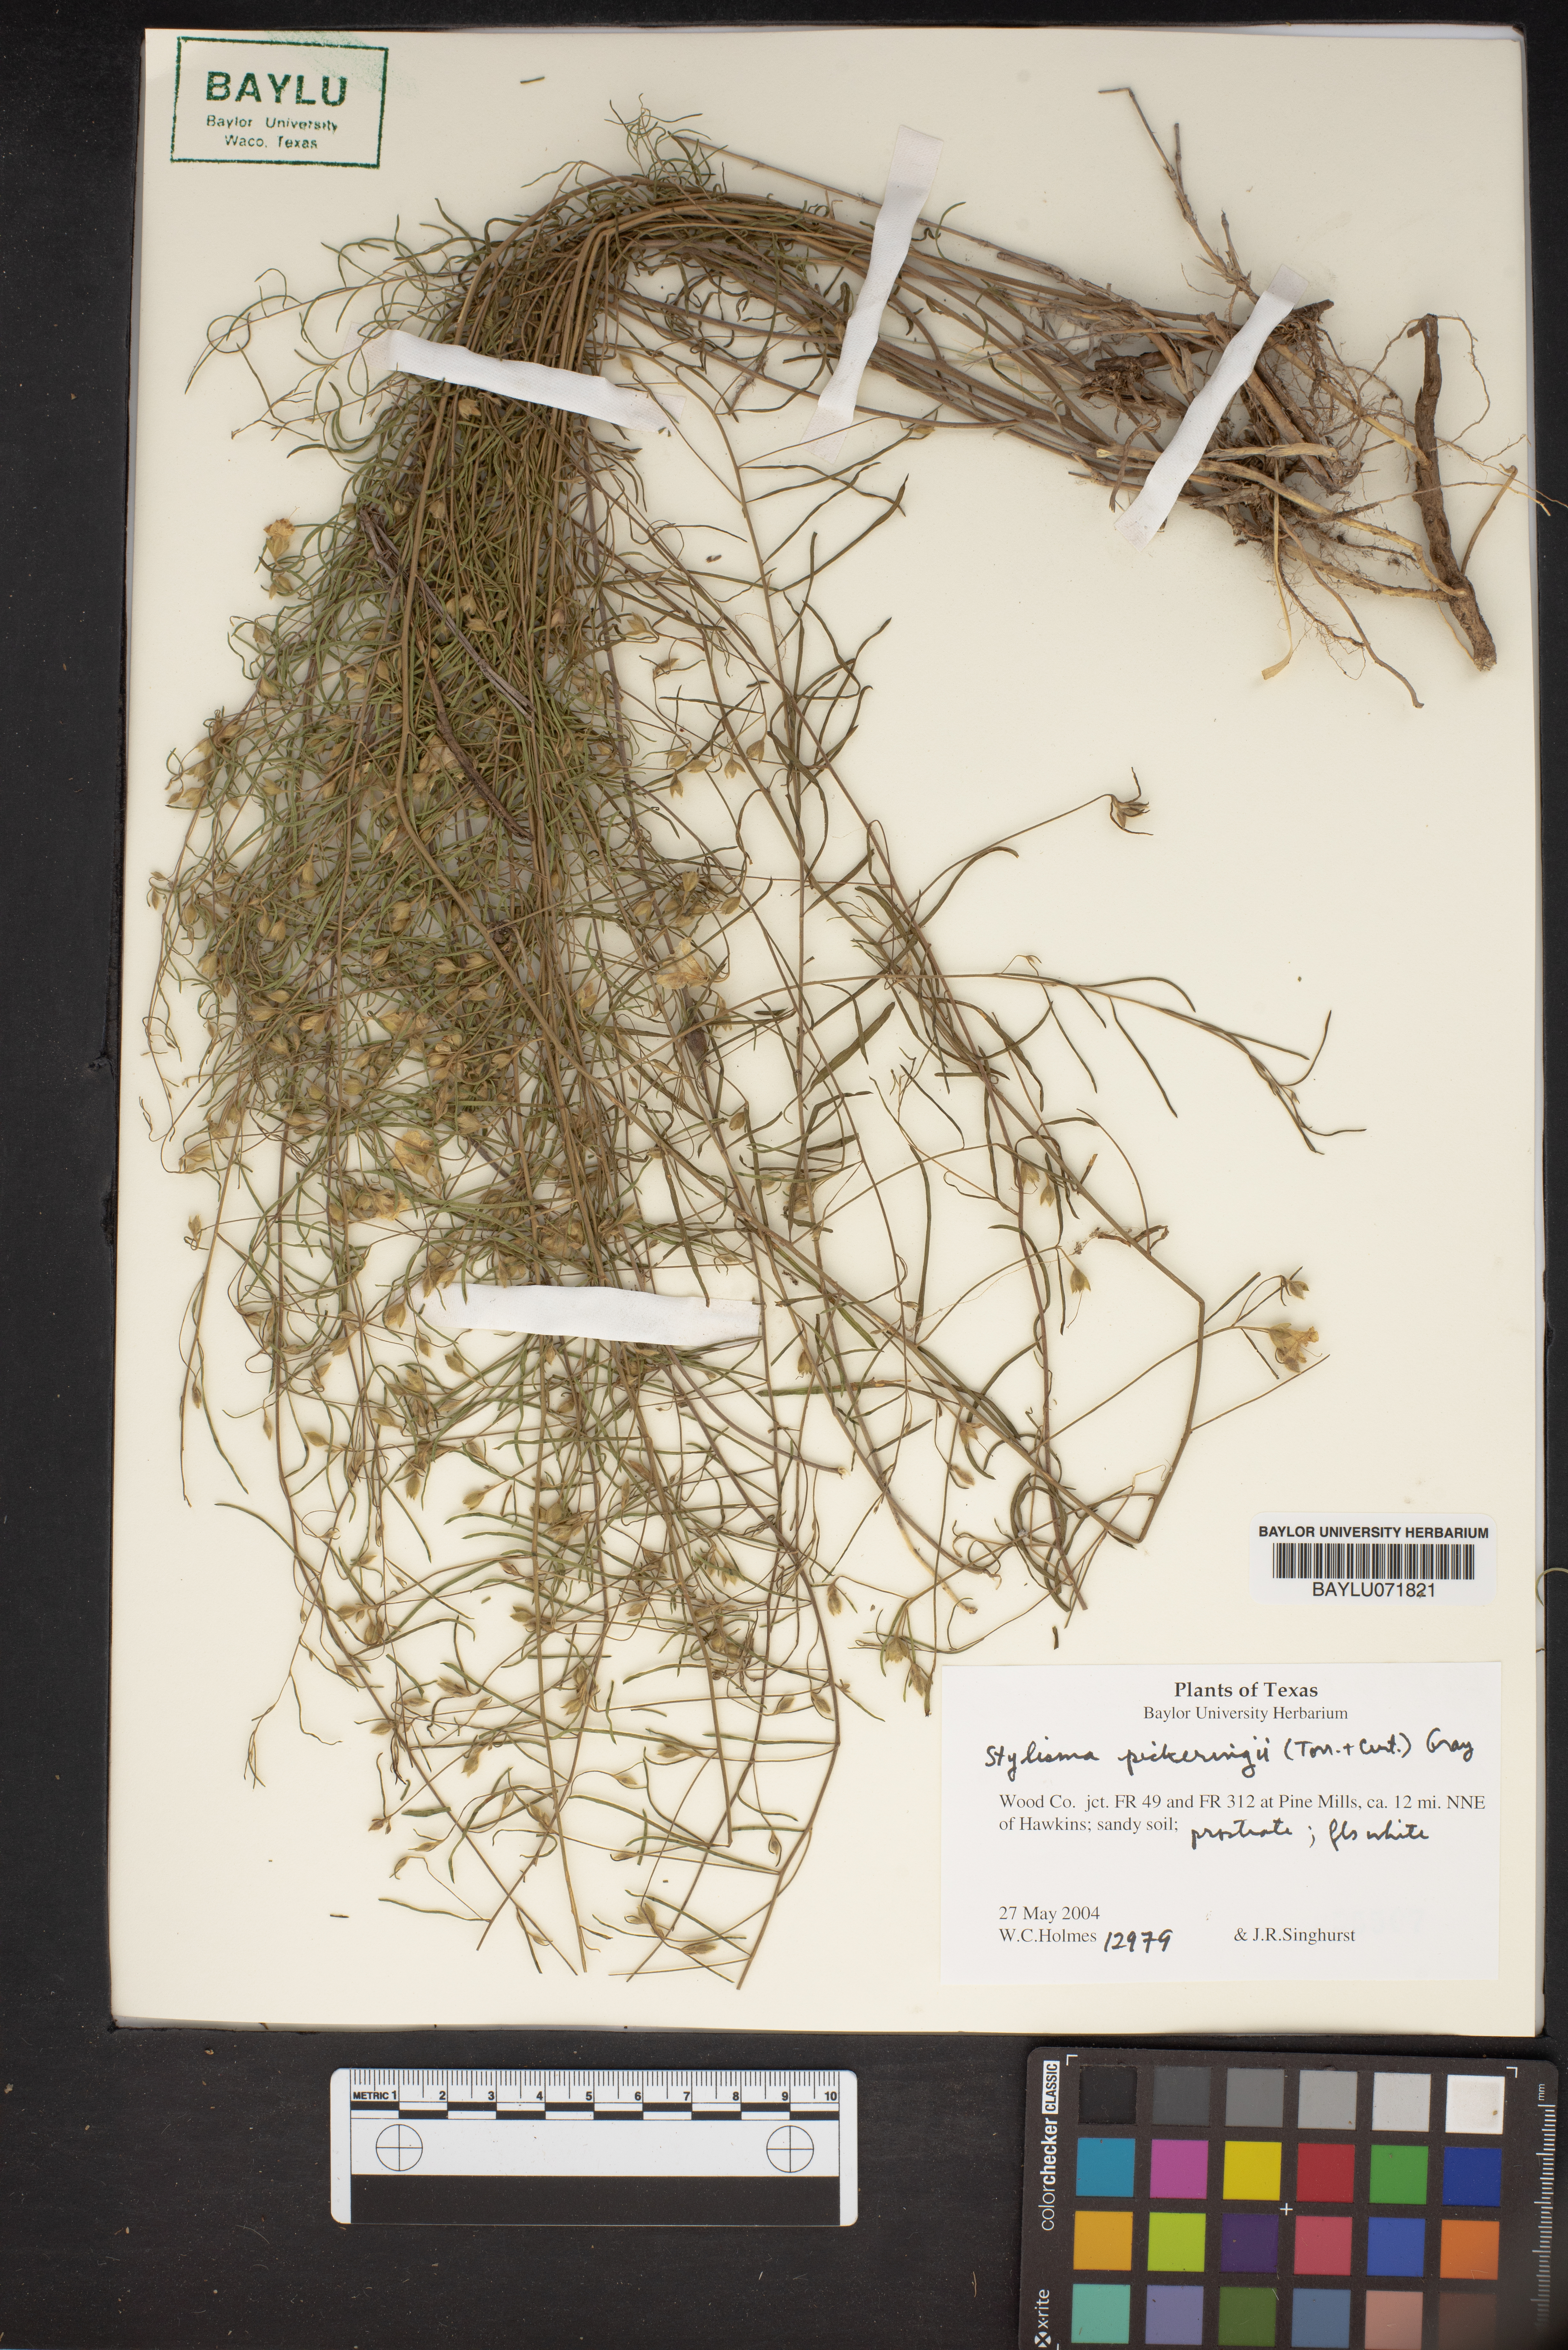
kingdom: Plantae
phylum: Tracheophyta
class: Magnoliopsida
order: Solanales
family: Convolvulaceae
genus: Stylisma
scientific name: Stylisma pickeringii
